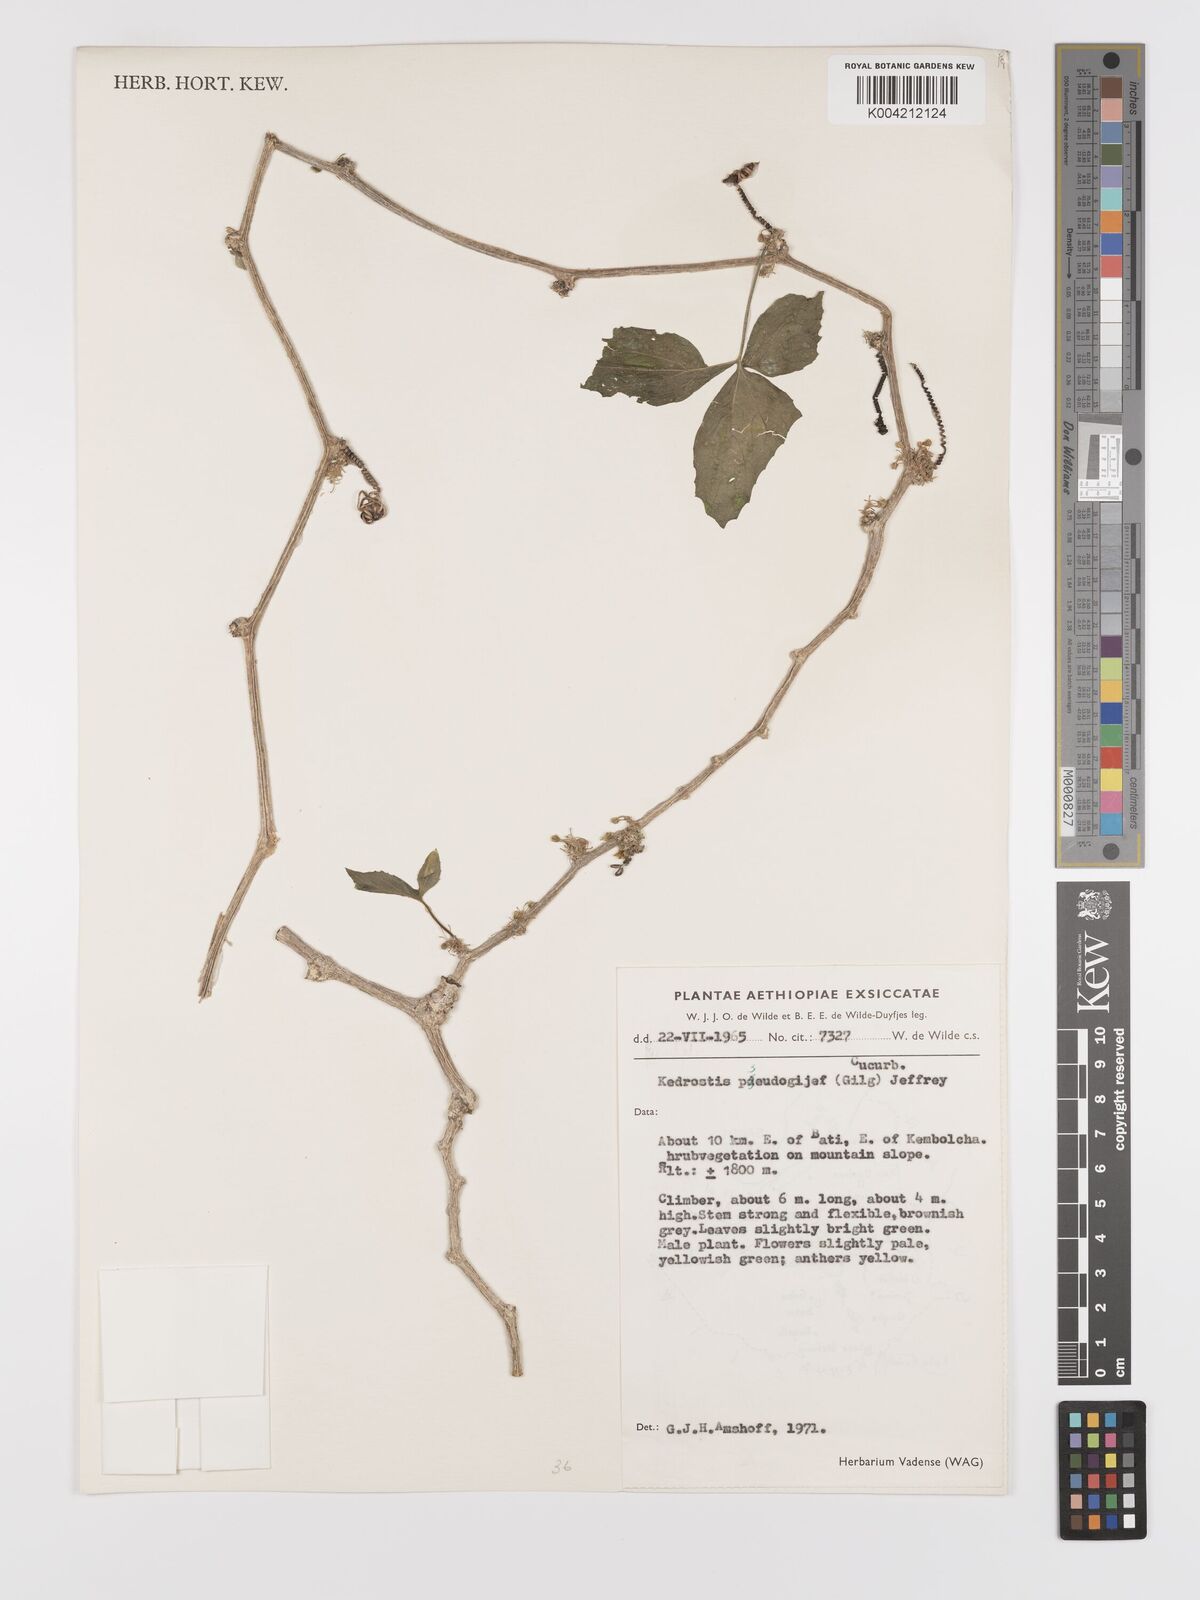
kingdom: Plantae
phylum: Tracheophyta
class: Magnoliopsida
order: Cucurbitales
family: Cucurbitaceae
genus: Kedrostis
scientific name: Kedrostis pseudogijef
